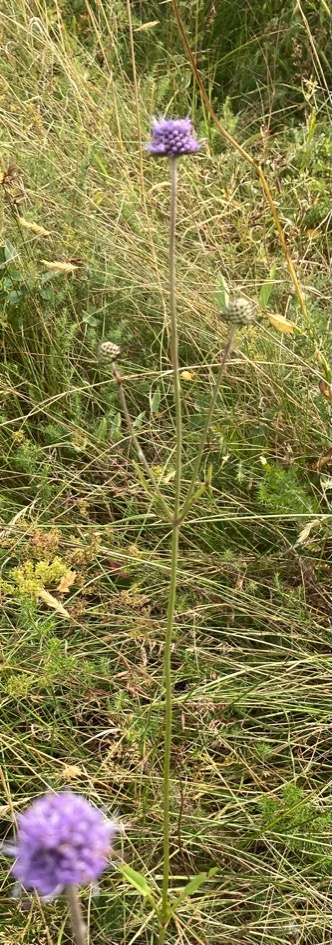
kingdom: Plantae
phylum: Tracheophyta
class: Magnoliopsida
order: Dipsacales
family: Caprifoliaceae
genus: Succisa
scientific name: Succisa pratensis
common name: Djævelsbid
